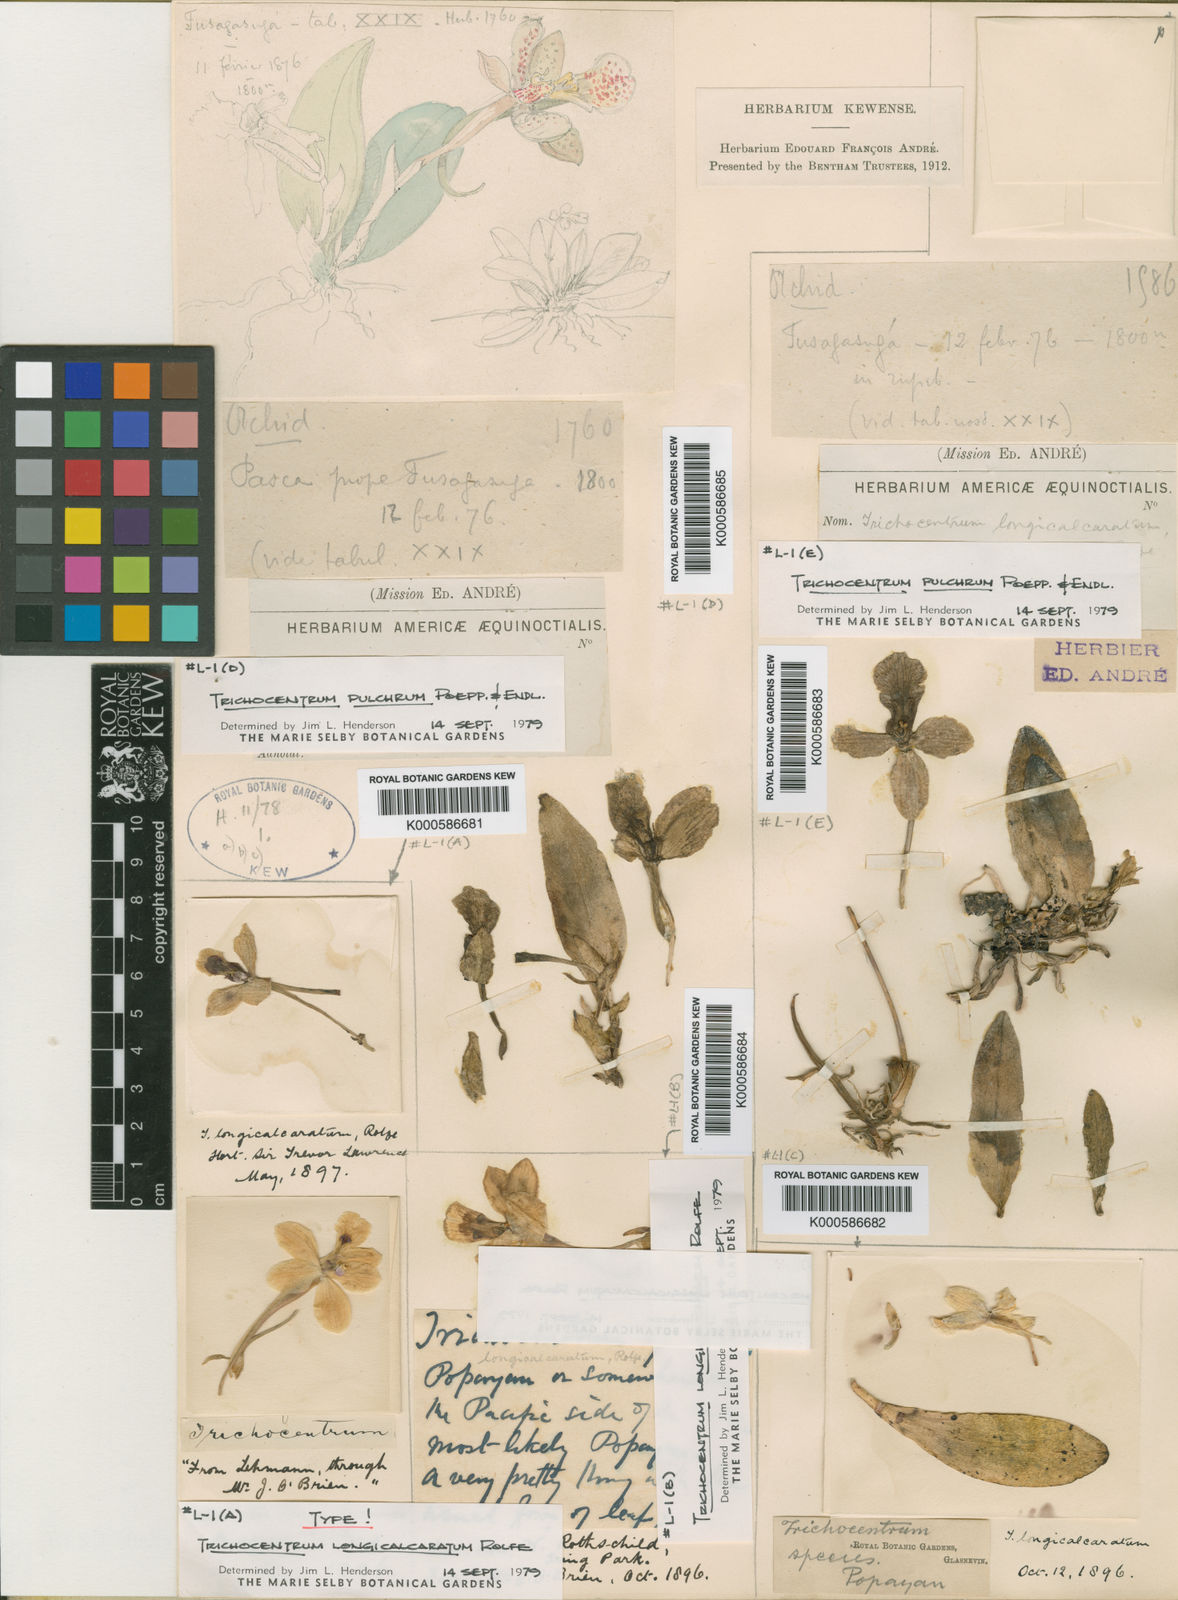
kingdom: Plantae
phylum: Tracheophyta
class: Liliopsida
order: Asparagales
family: Orchidaceae
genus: Trichocentrum
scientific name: Trichocentrum longicalcaratum
